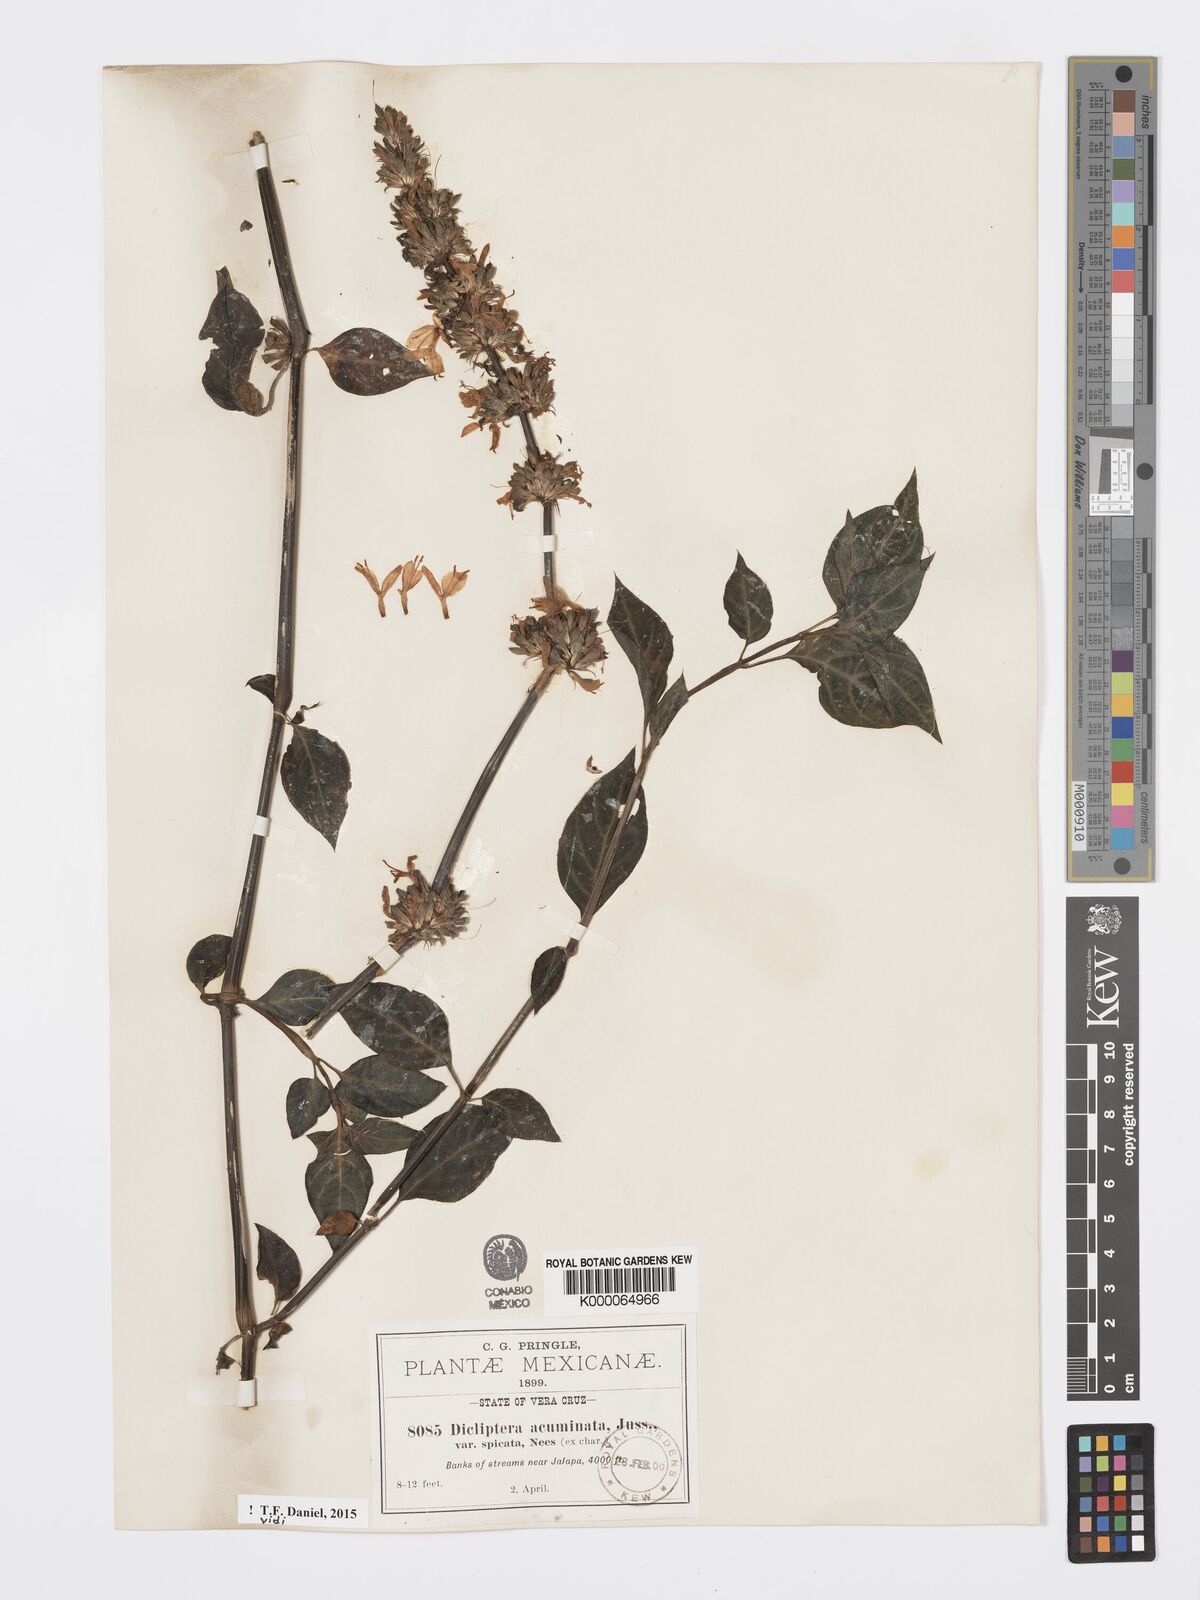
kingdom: Plantae
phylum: Tracheophyta
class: Magnoliopsida
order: Lamiales
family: Acanthaceae
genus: Dicliptera
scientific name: Dicliptera acuminata
